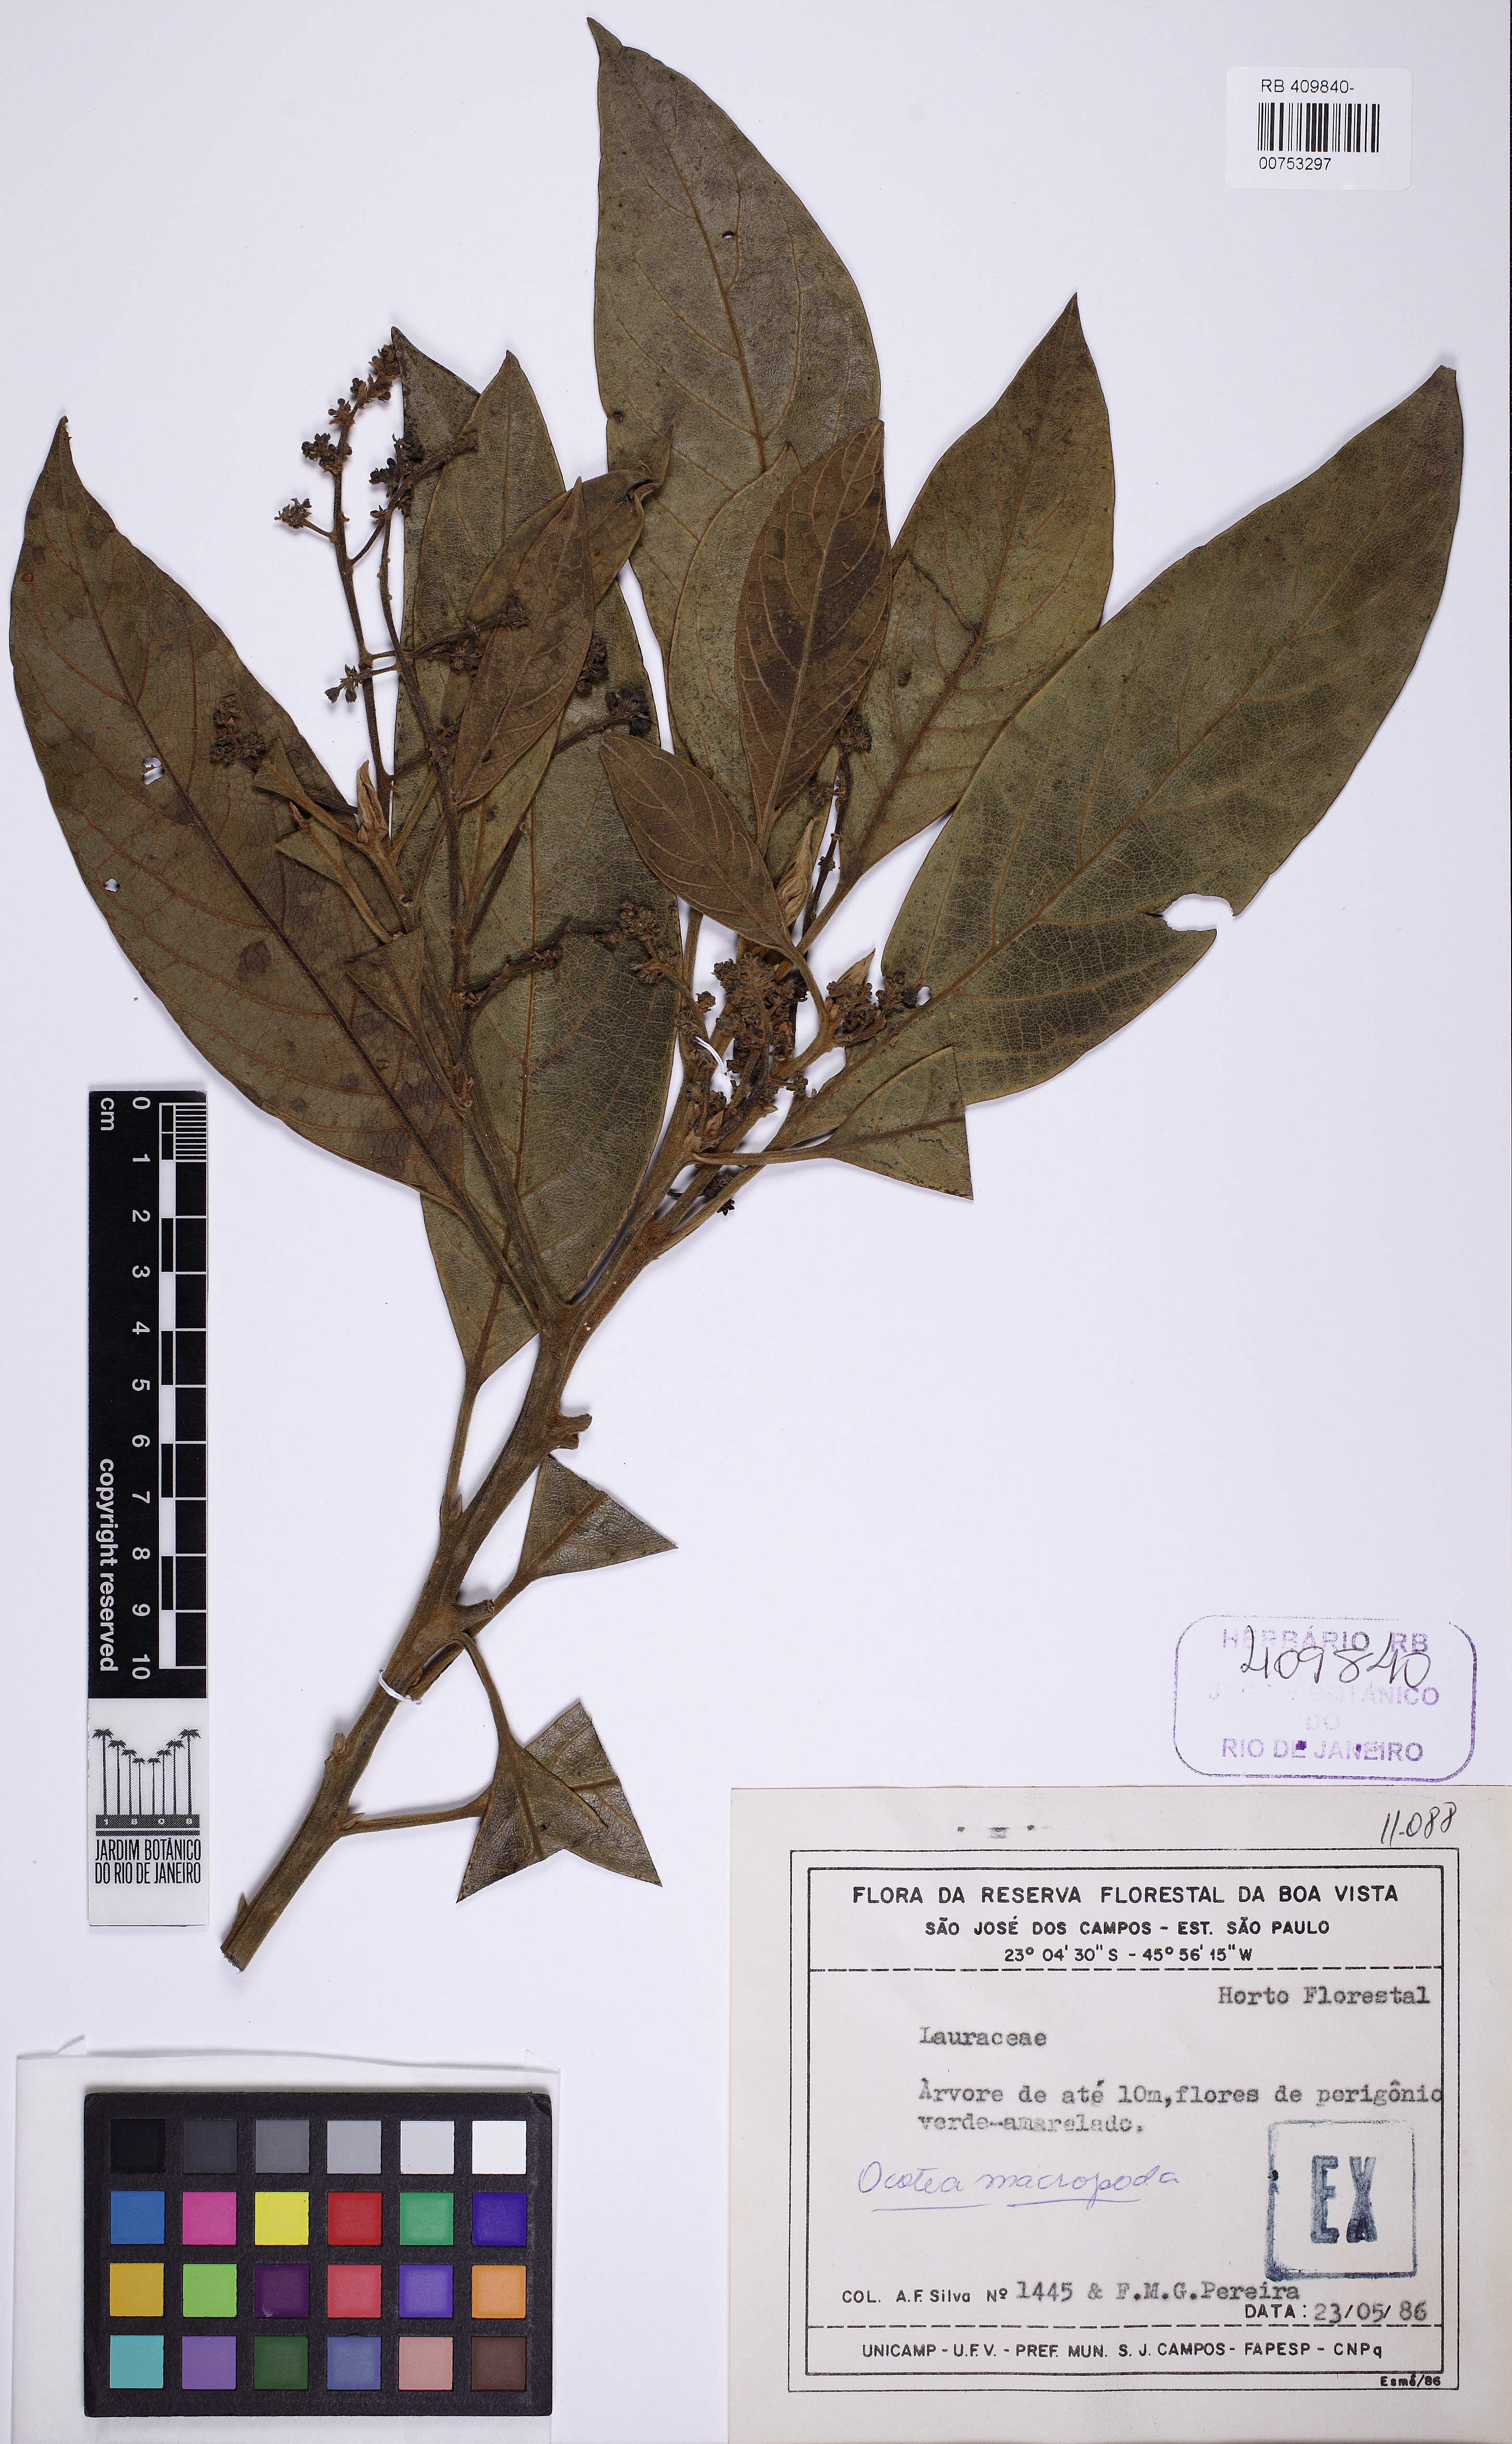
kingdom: Plantae
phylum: Tracheophyta
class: Magnoliopsida
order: Laurales
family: Lauraceae
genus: Ocotea
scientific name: Ocotea macropoda
